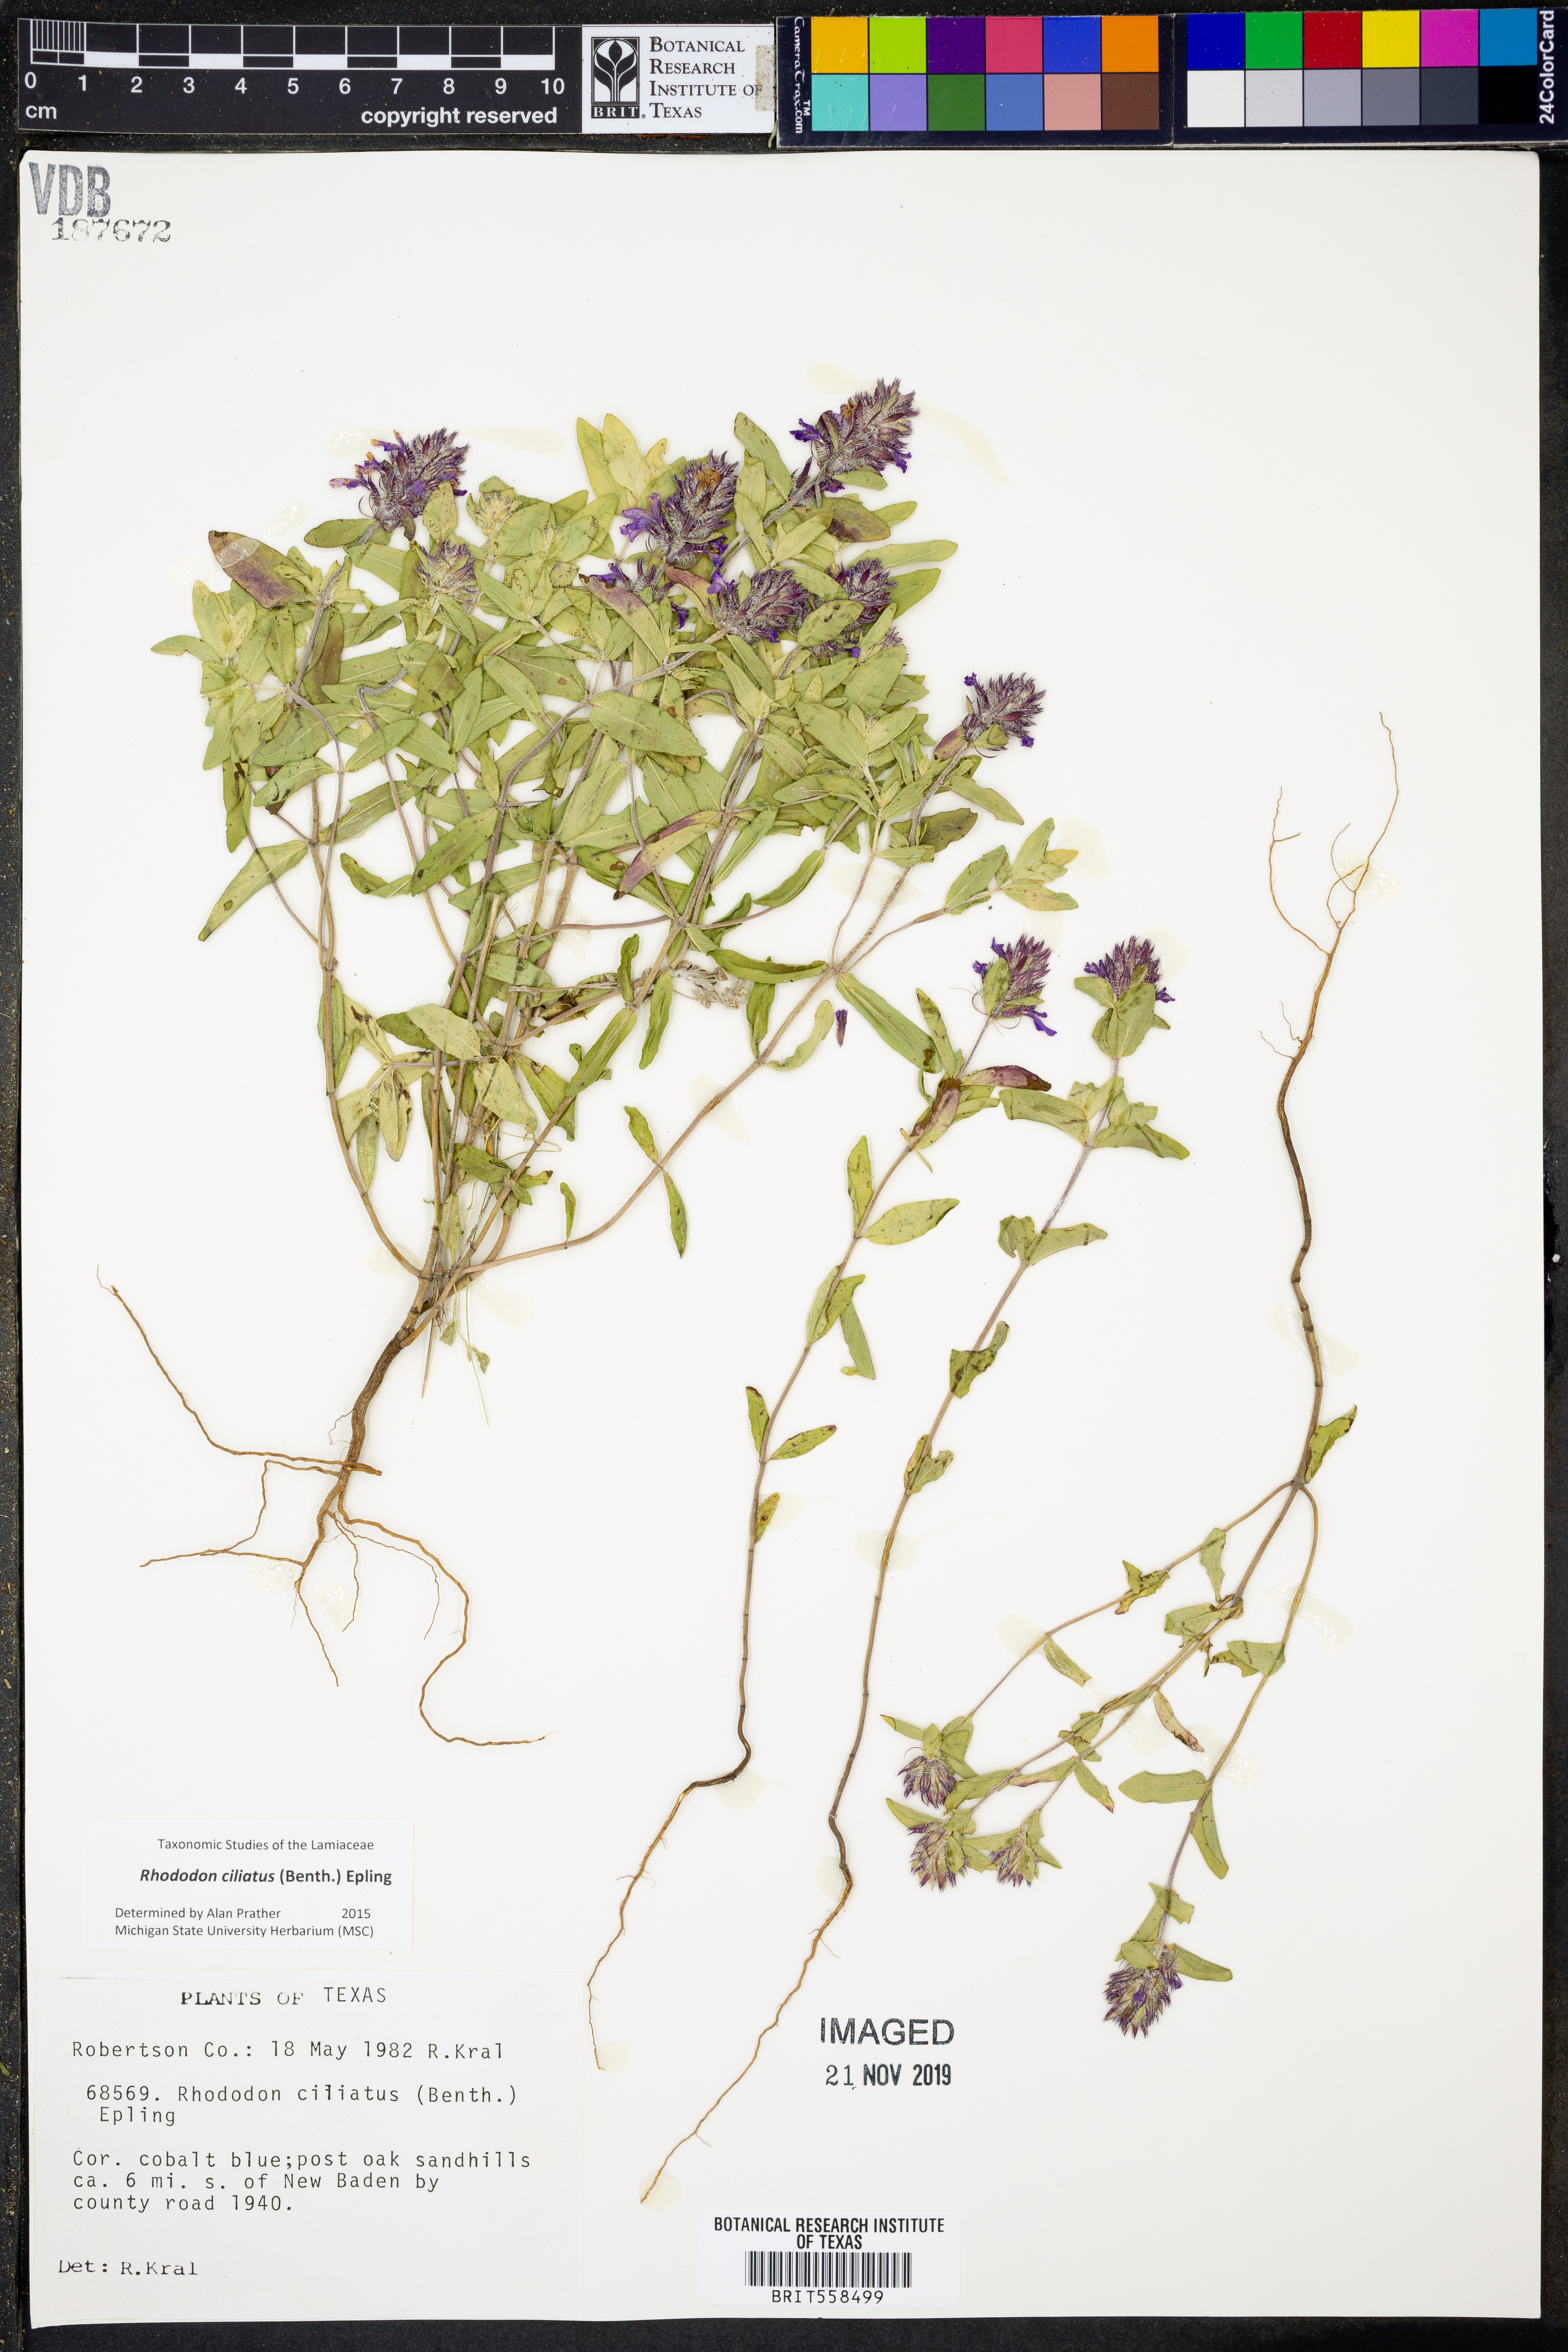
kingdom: Plantae
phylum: Tracheophyta
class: Magnoliopsida
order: Lamiales
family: Lamiaceae
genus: Rhododon
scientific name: Rhododon ciliatus
